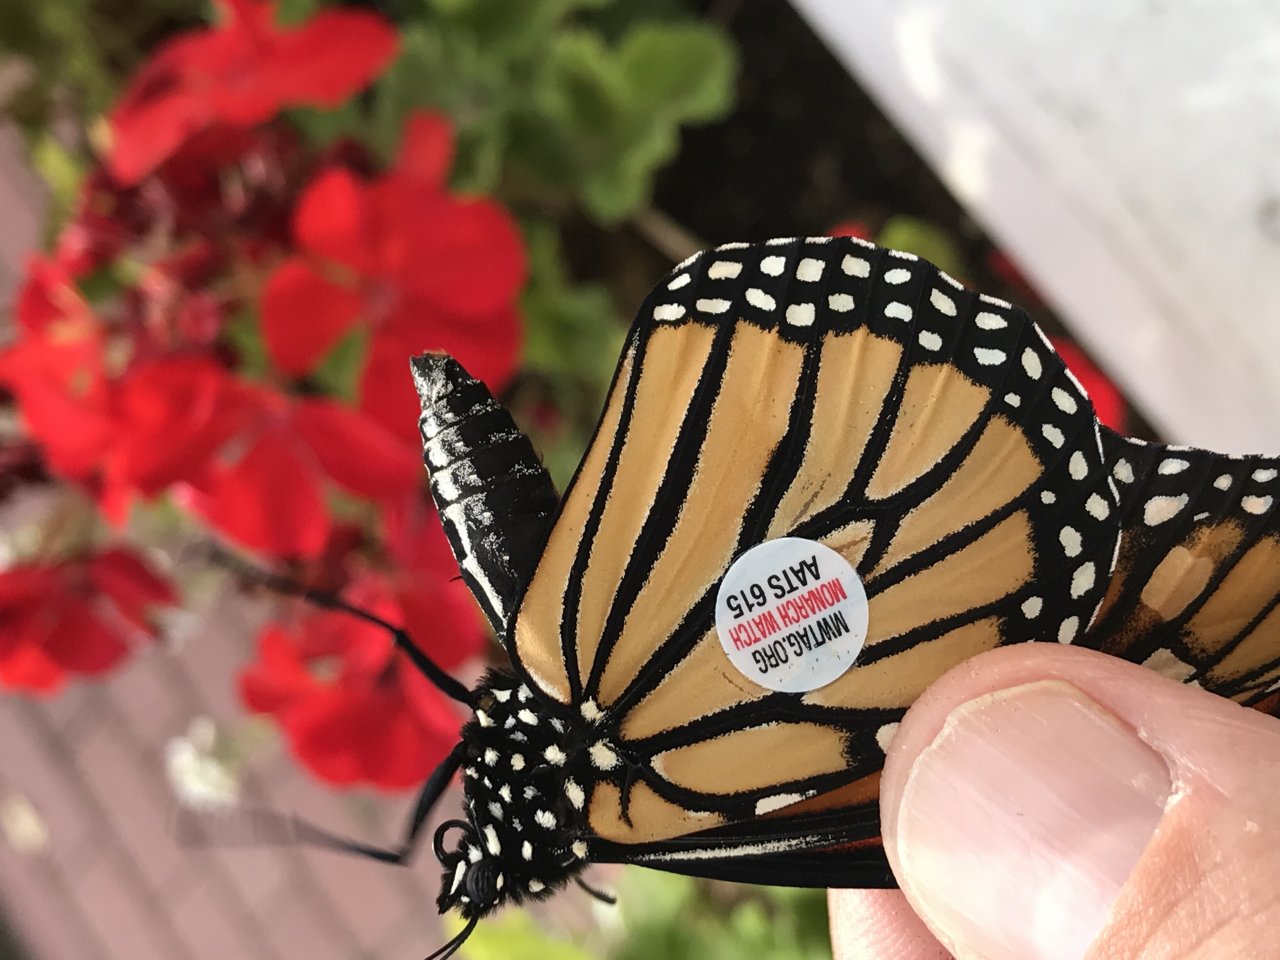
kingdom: Animalia
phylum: Arthropoda
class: Insecta
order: Lepidoptera
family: Nymphalidae
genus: Danaus
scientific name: Danaus plexippus
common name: Monarch
